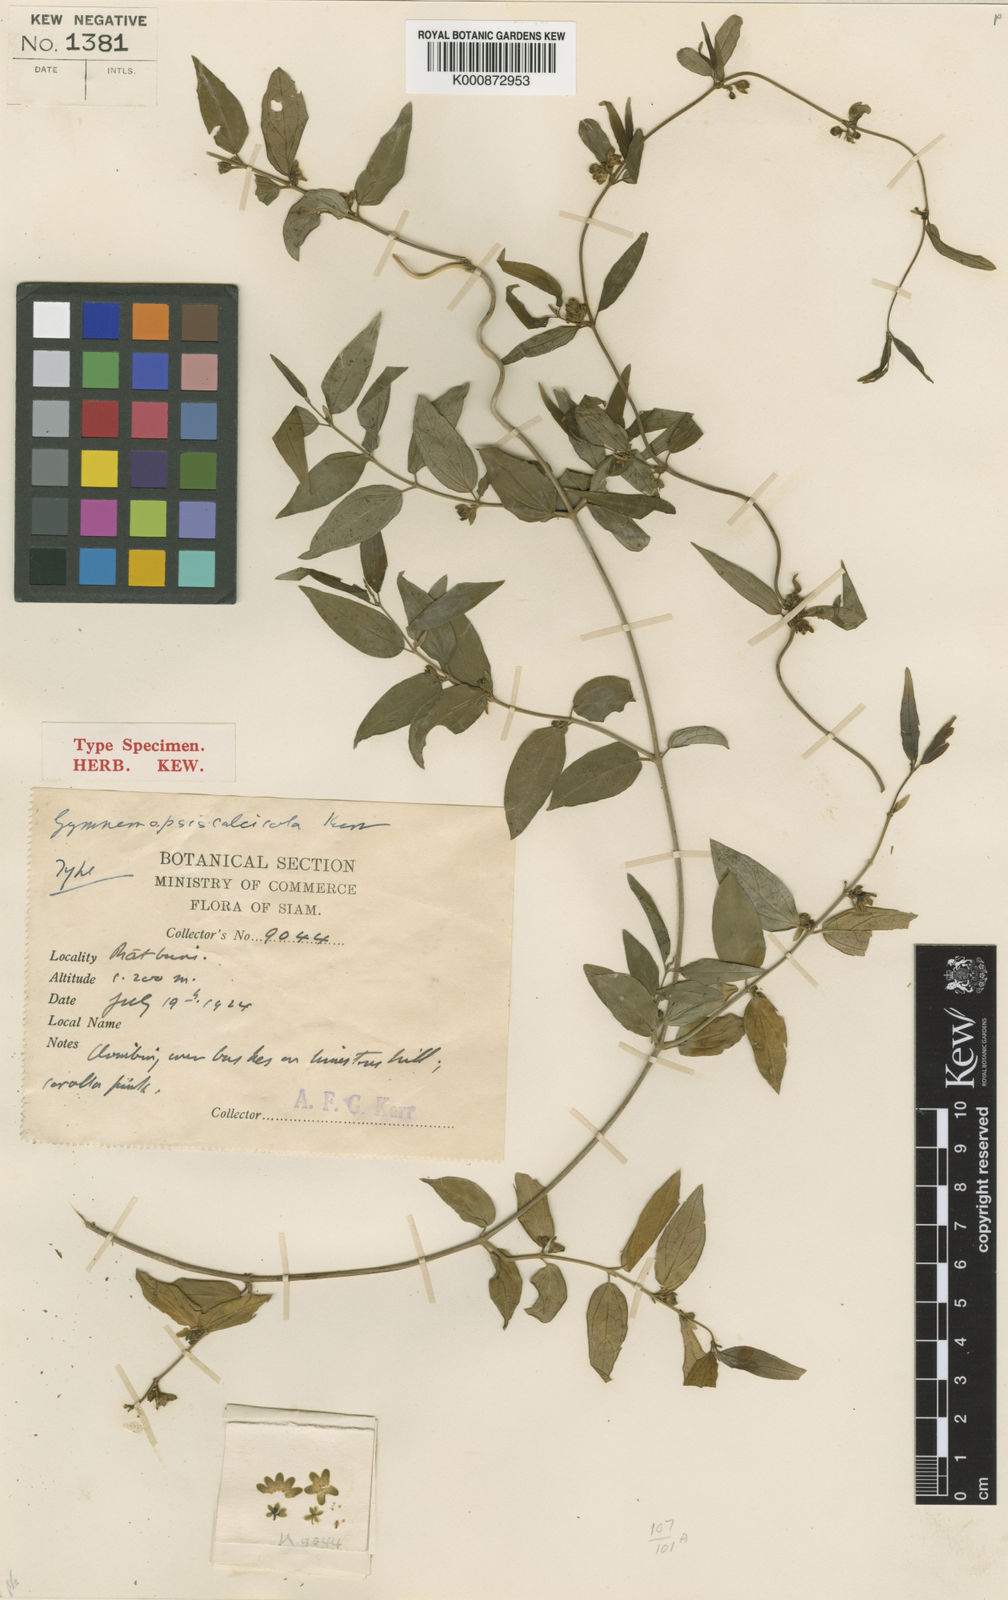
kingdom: Plantae
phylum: Tracheophyta
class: Magnoliopsida
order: Gentianales
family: Apocynaceae
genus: Gymnemopsis
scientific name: Gymnemopsis calcicola
